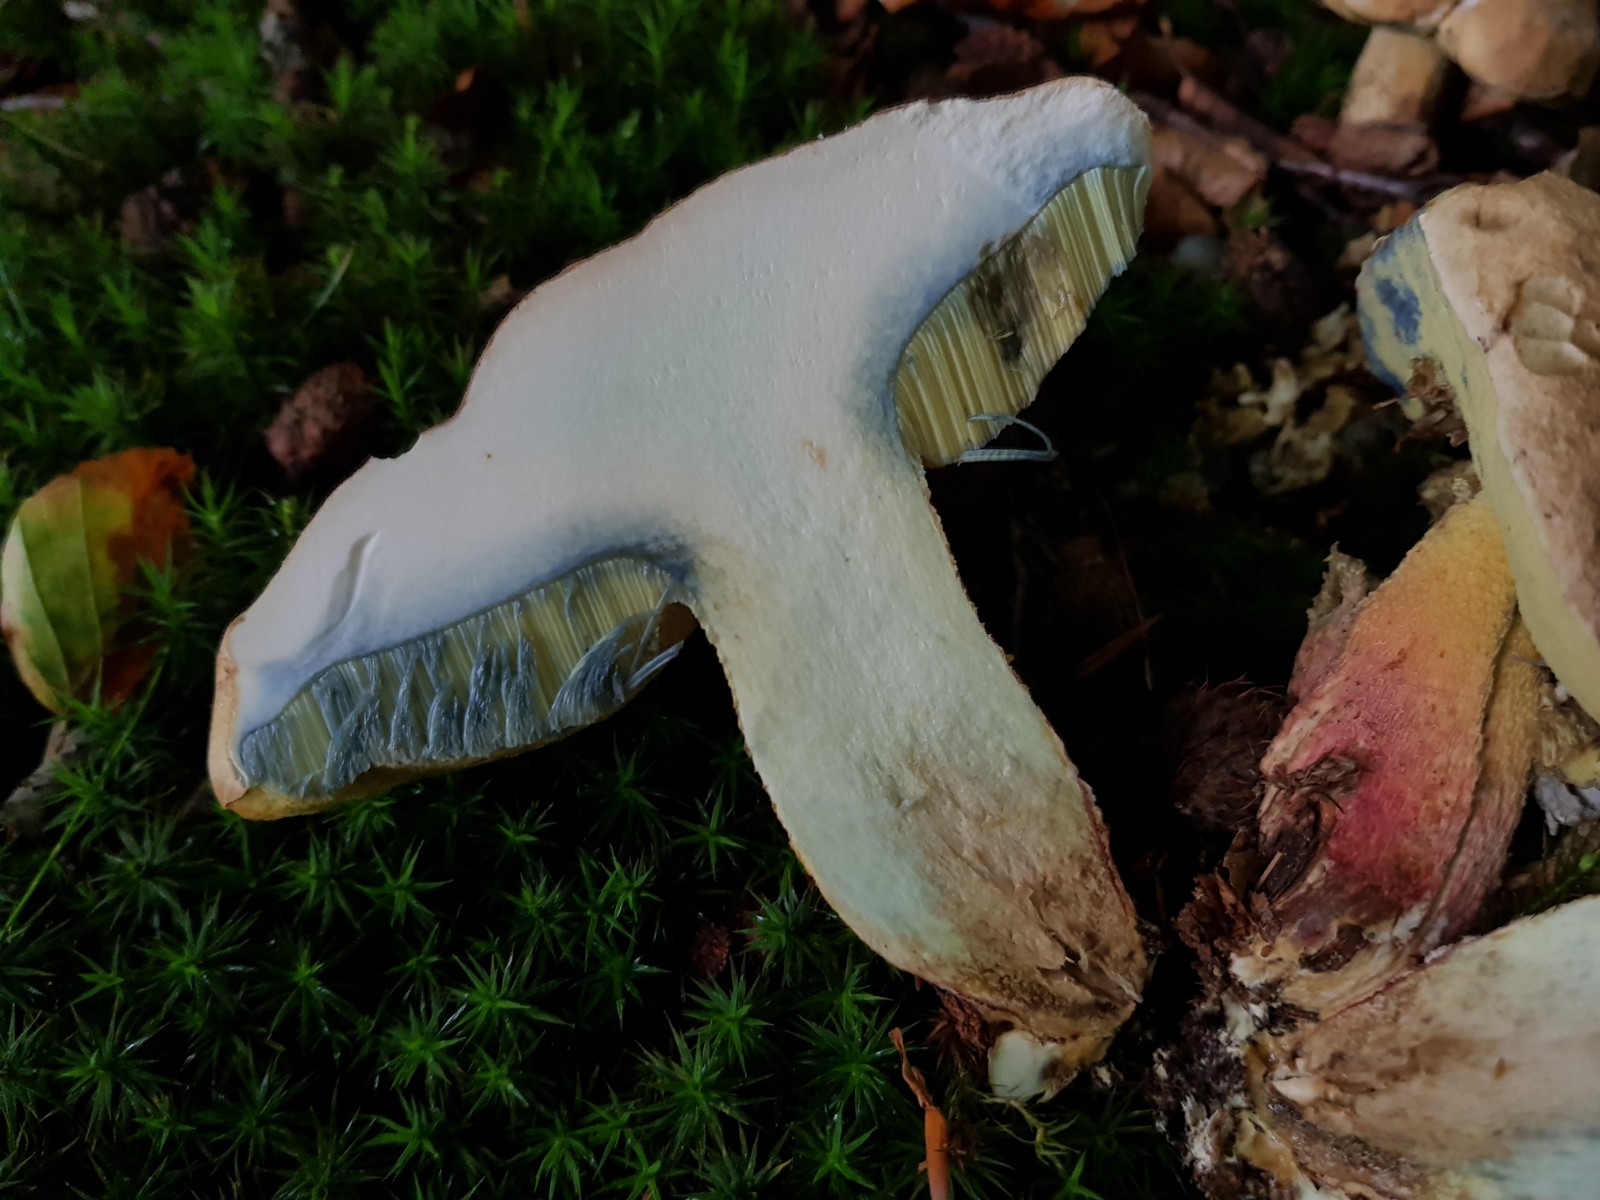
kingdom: Fungi
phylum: Basidiomycota
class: Agaricomycetes
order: Boletales
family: Boletaceae
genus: Caloboletus
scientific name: Caloboletus calopus
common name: skønfodet rørhat
